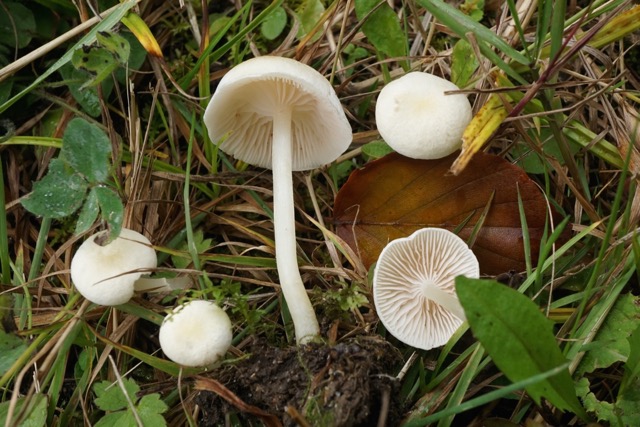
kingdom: Fungi
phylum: Basidiomycota
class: Agaricomycetes
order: Agaricales
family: Entolomataceae
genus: Entoloma
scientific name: Entoloma sericellum
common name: silkehvid rødblad
